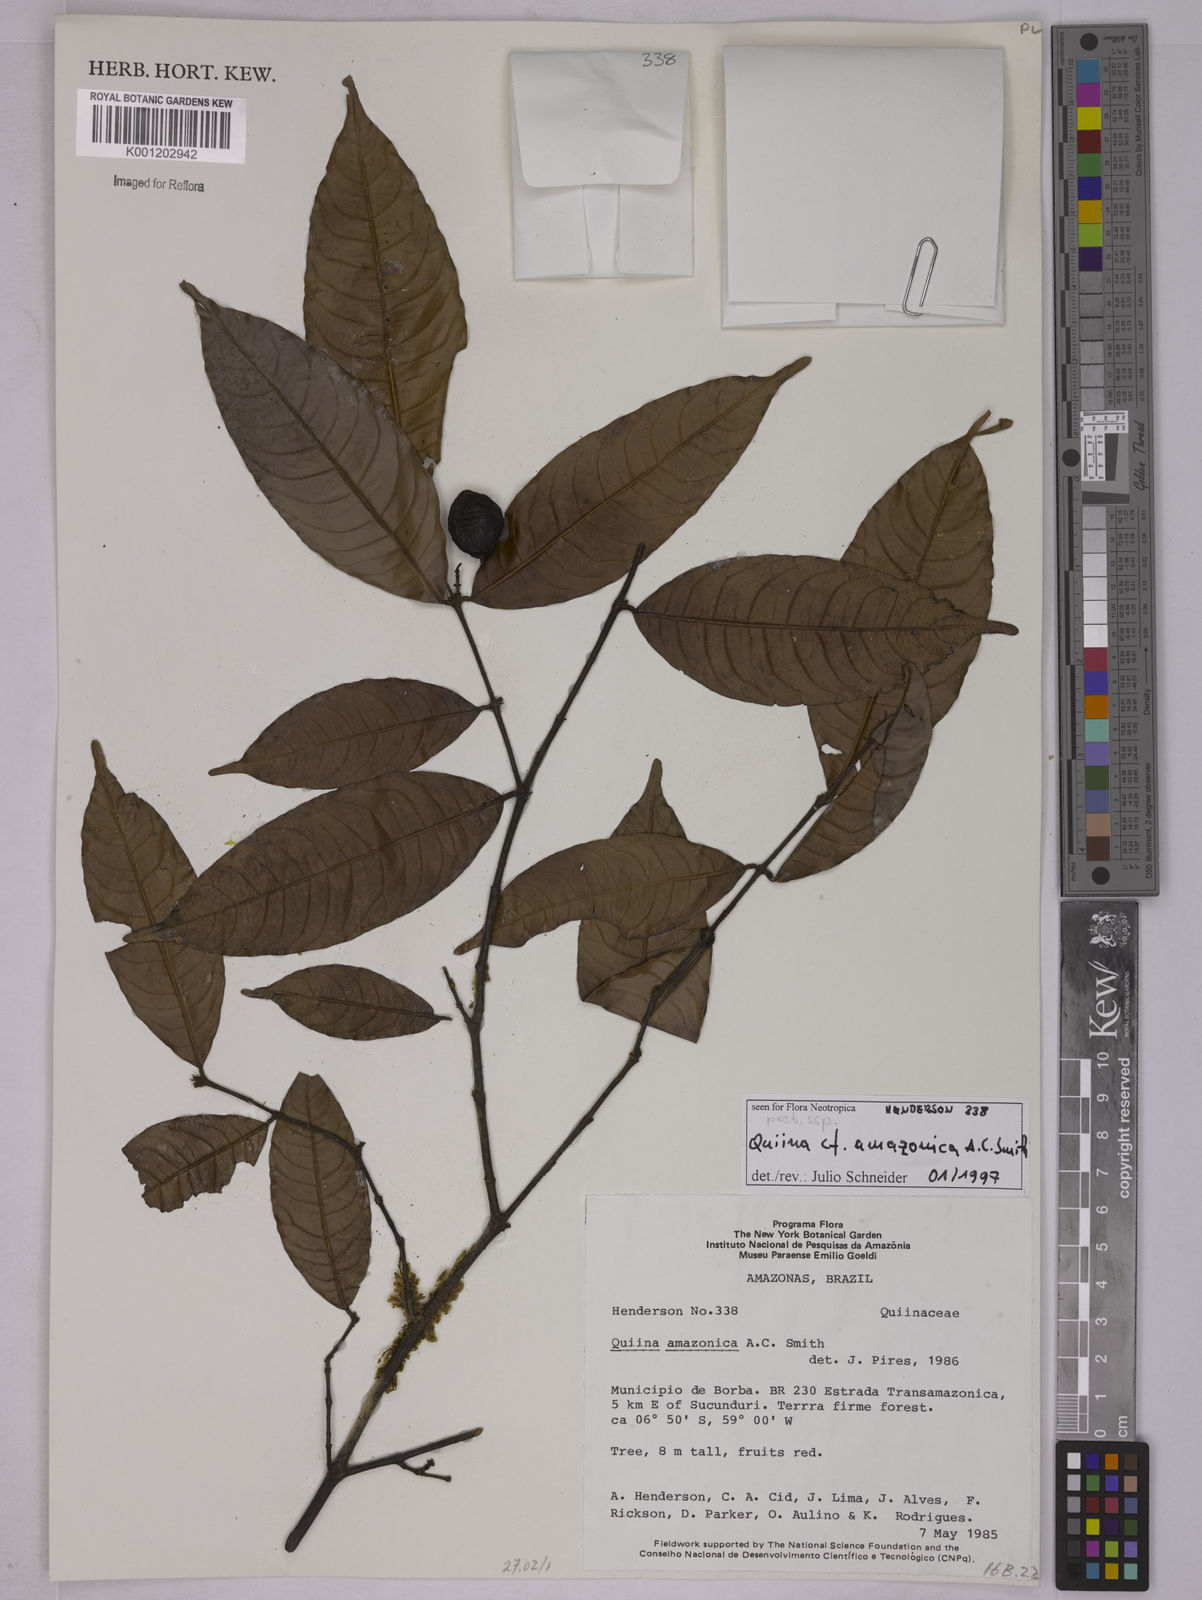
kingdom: Plantae
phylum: Tracheophyta
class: Magnoliopsida
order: Malpighiales
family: Quiinaceae
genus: Quiina
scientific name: Quiina amazonica
